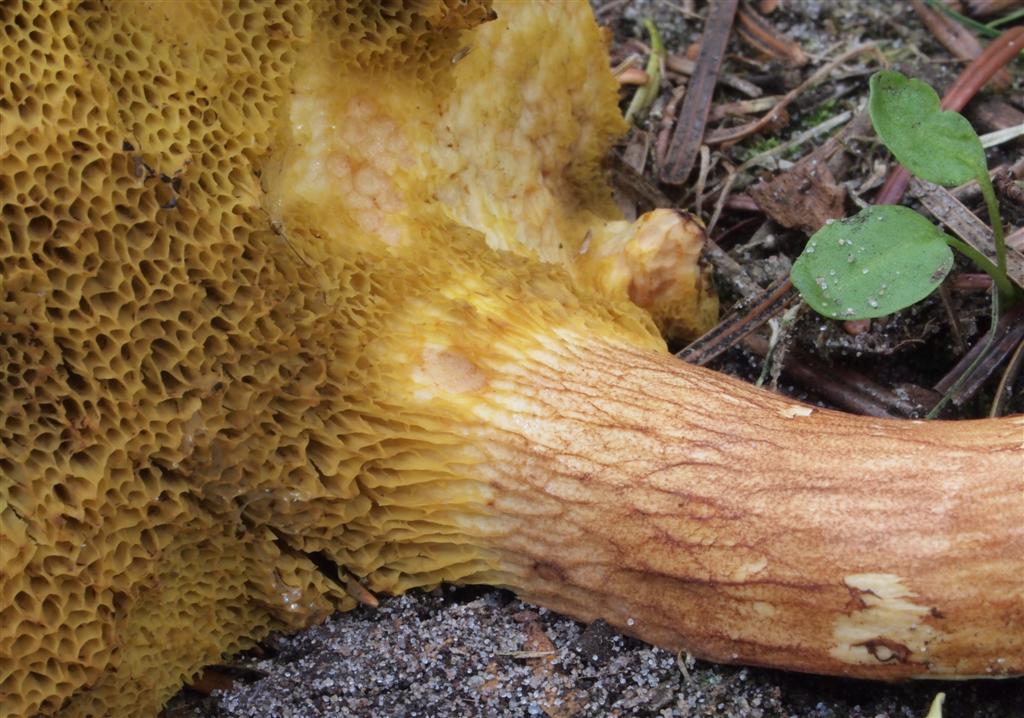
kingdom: Fungi
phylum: Basidiomycota
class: Agaricomycetes
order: Boletales
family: Boletaceae
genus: Xerocomus
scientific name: Xerocomus ferrugineus
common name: vaskeskinds-rørhat
